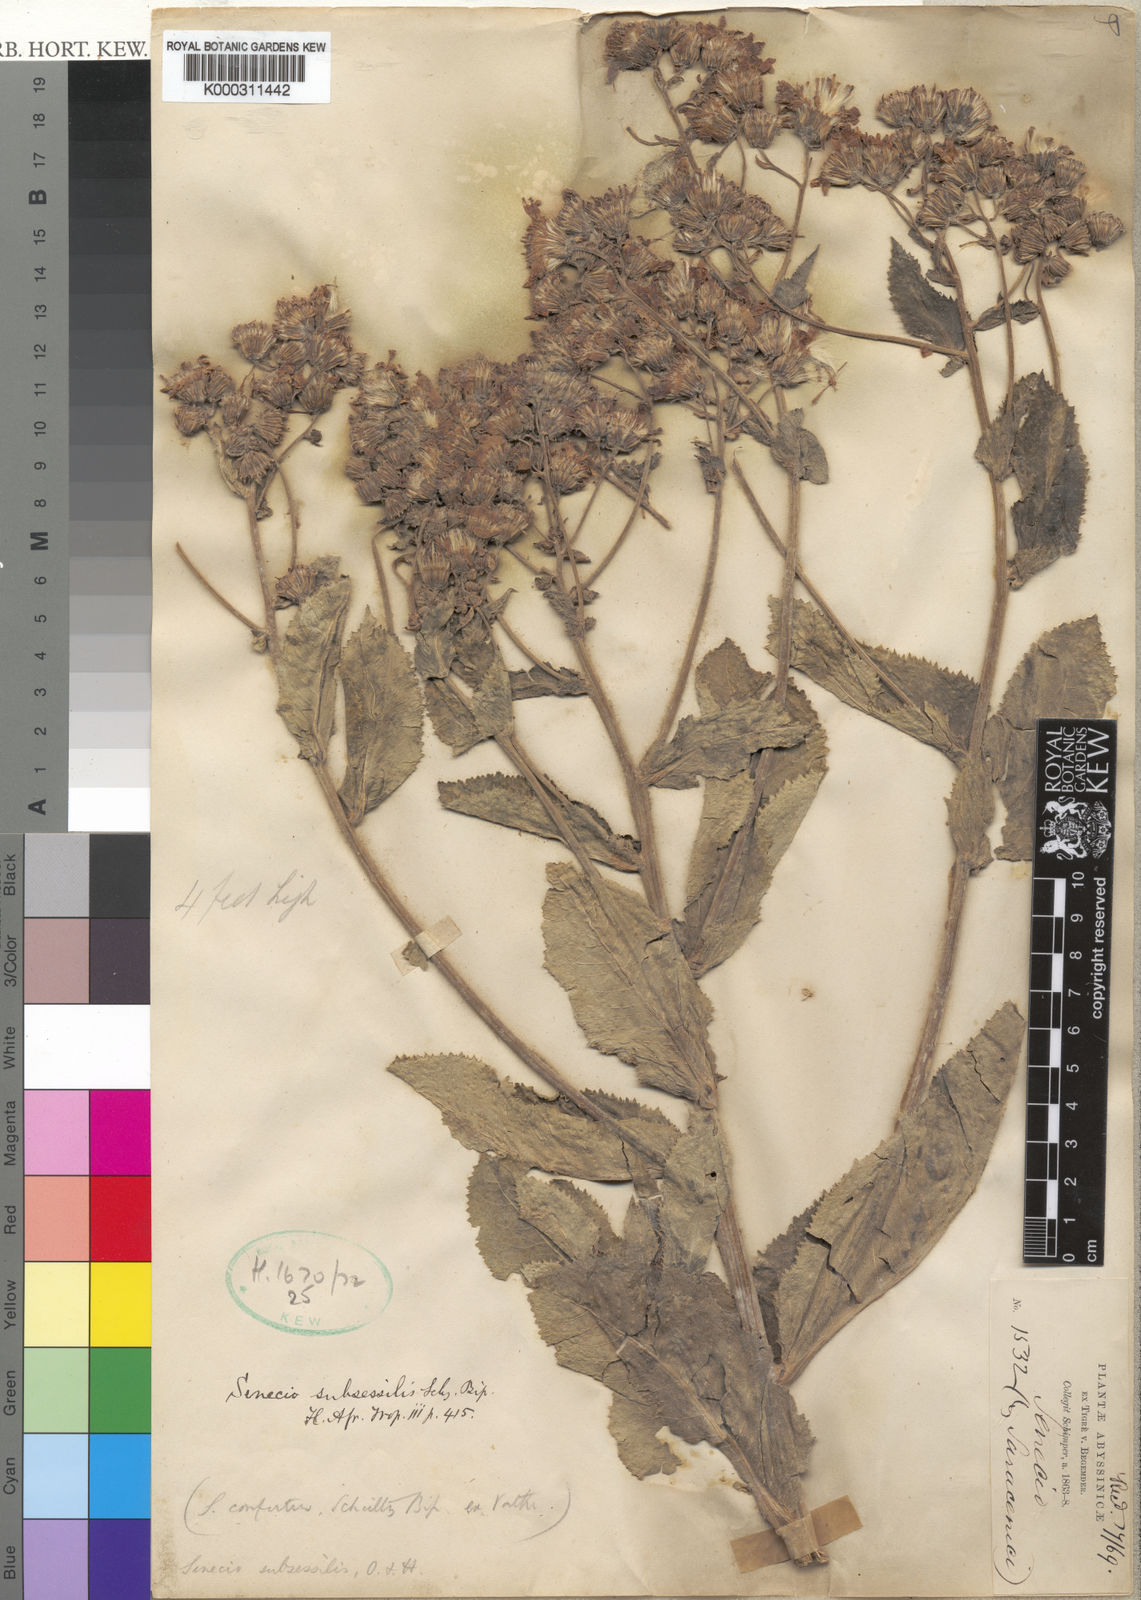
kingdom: Plantae
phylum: Tracheophyta
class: Magnoliopsida
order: Asterales
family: Asteraceae
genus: Senecio
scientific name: Senecio subsessilis
